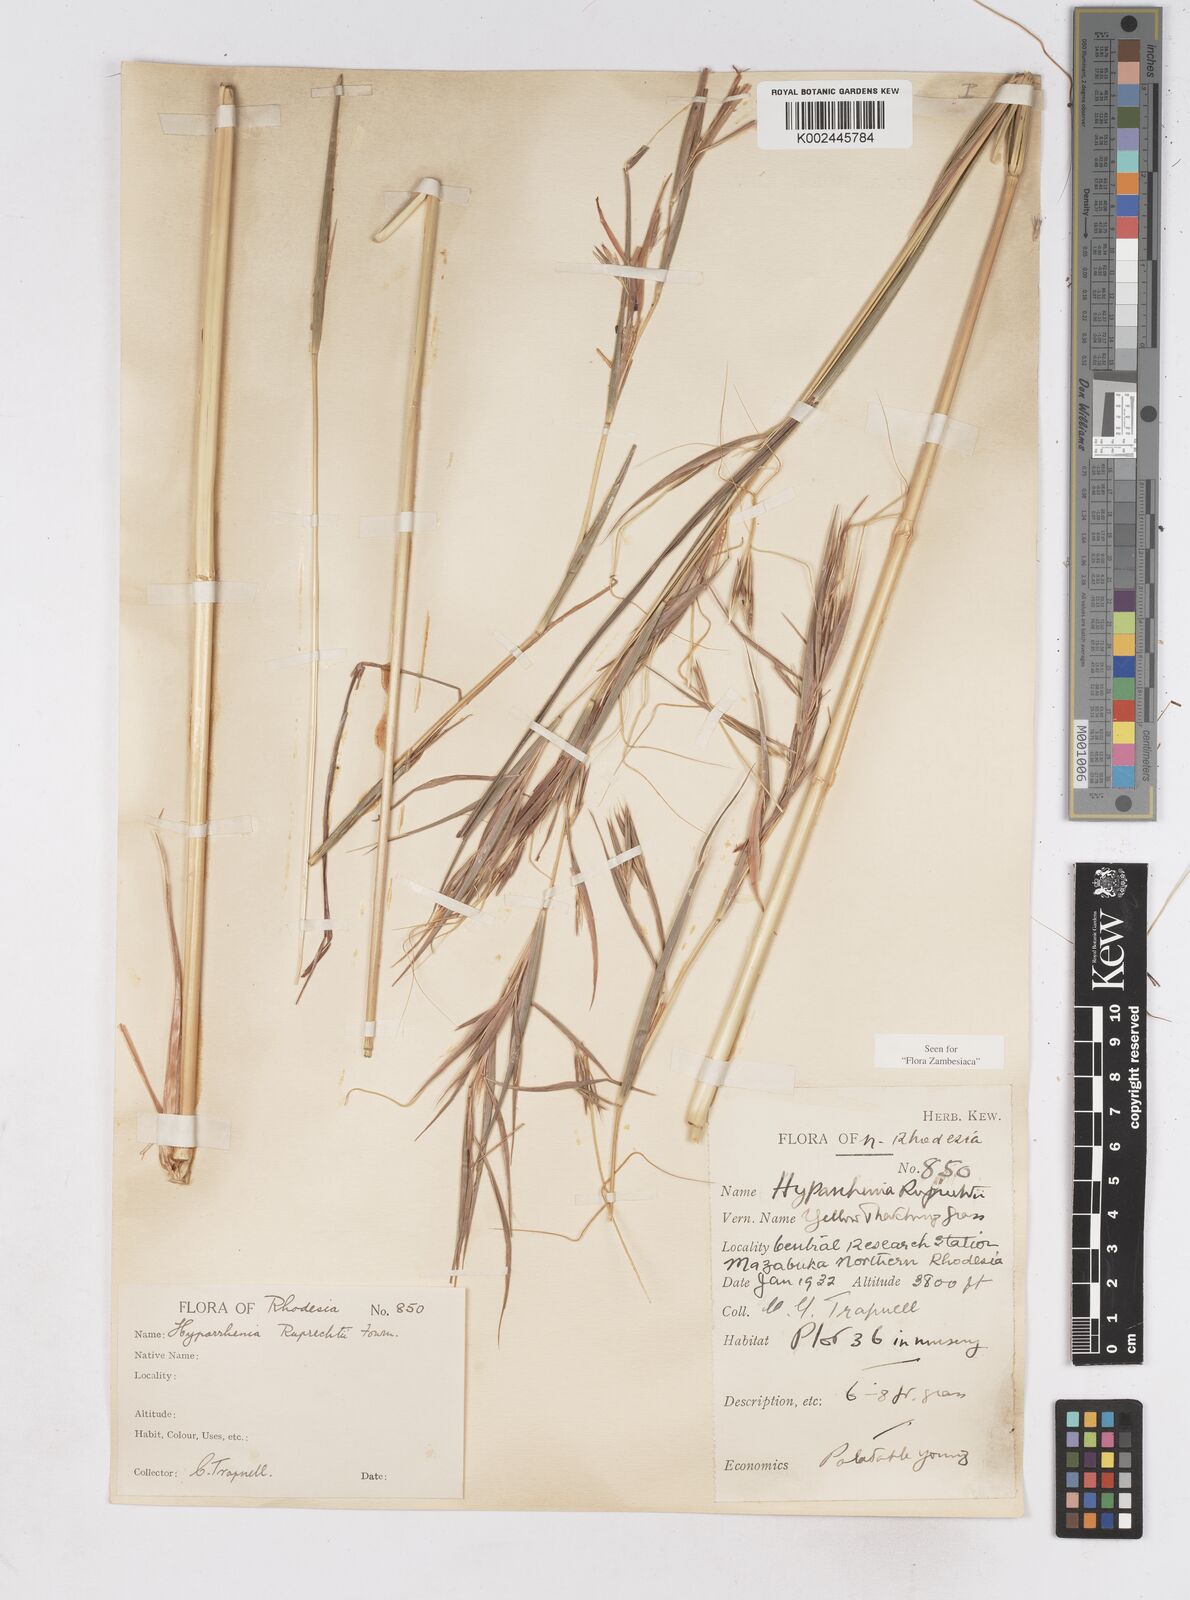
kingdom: Plantae
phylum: Tracheophyta
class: Liliopsida
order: Poales
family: Poaceae
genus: Hyperthelia
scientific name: Hyperthelia dissoluta
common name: Yellow thatching grass
